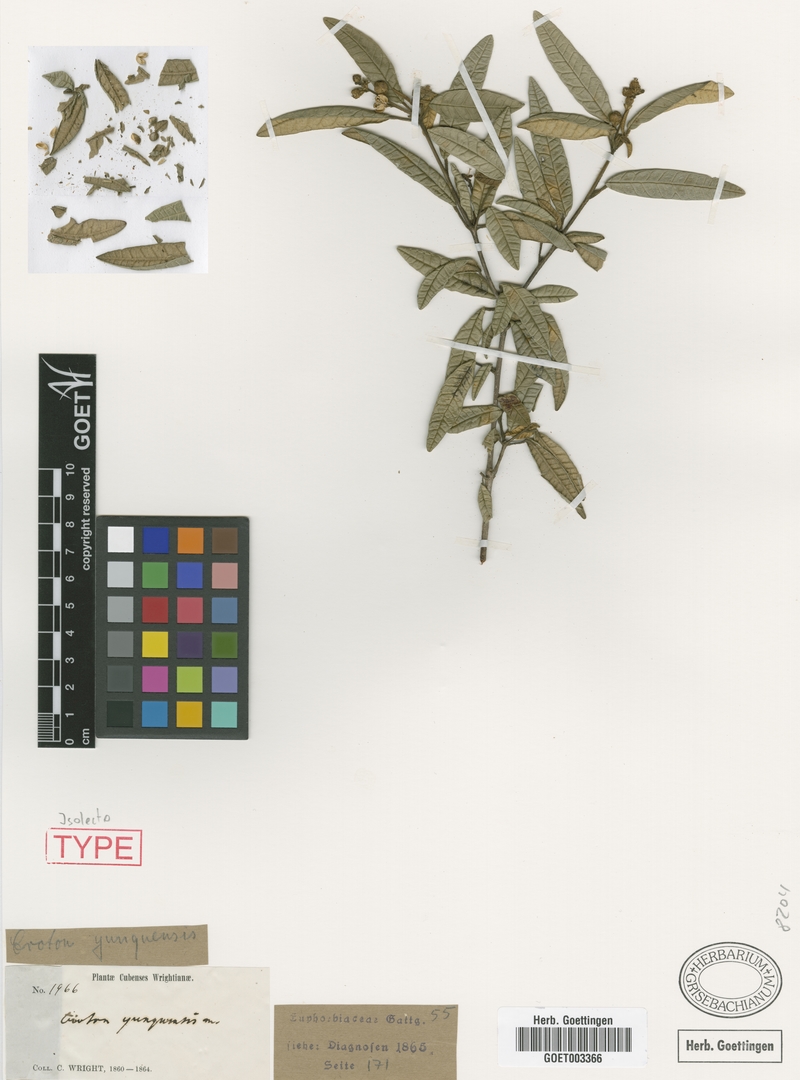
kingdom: Plantae
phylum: Tracheophyta
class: Magnoliopsida
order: Malpighiales
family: Euphorbiaceae
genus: Croton
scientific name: Croton viminalis
